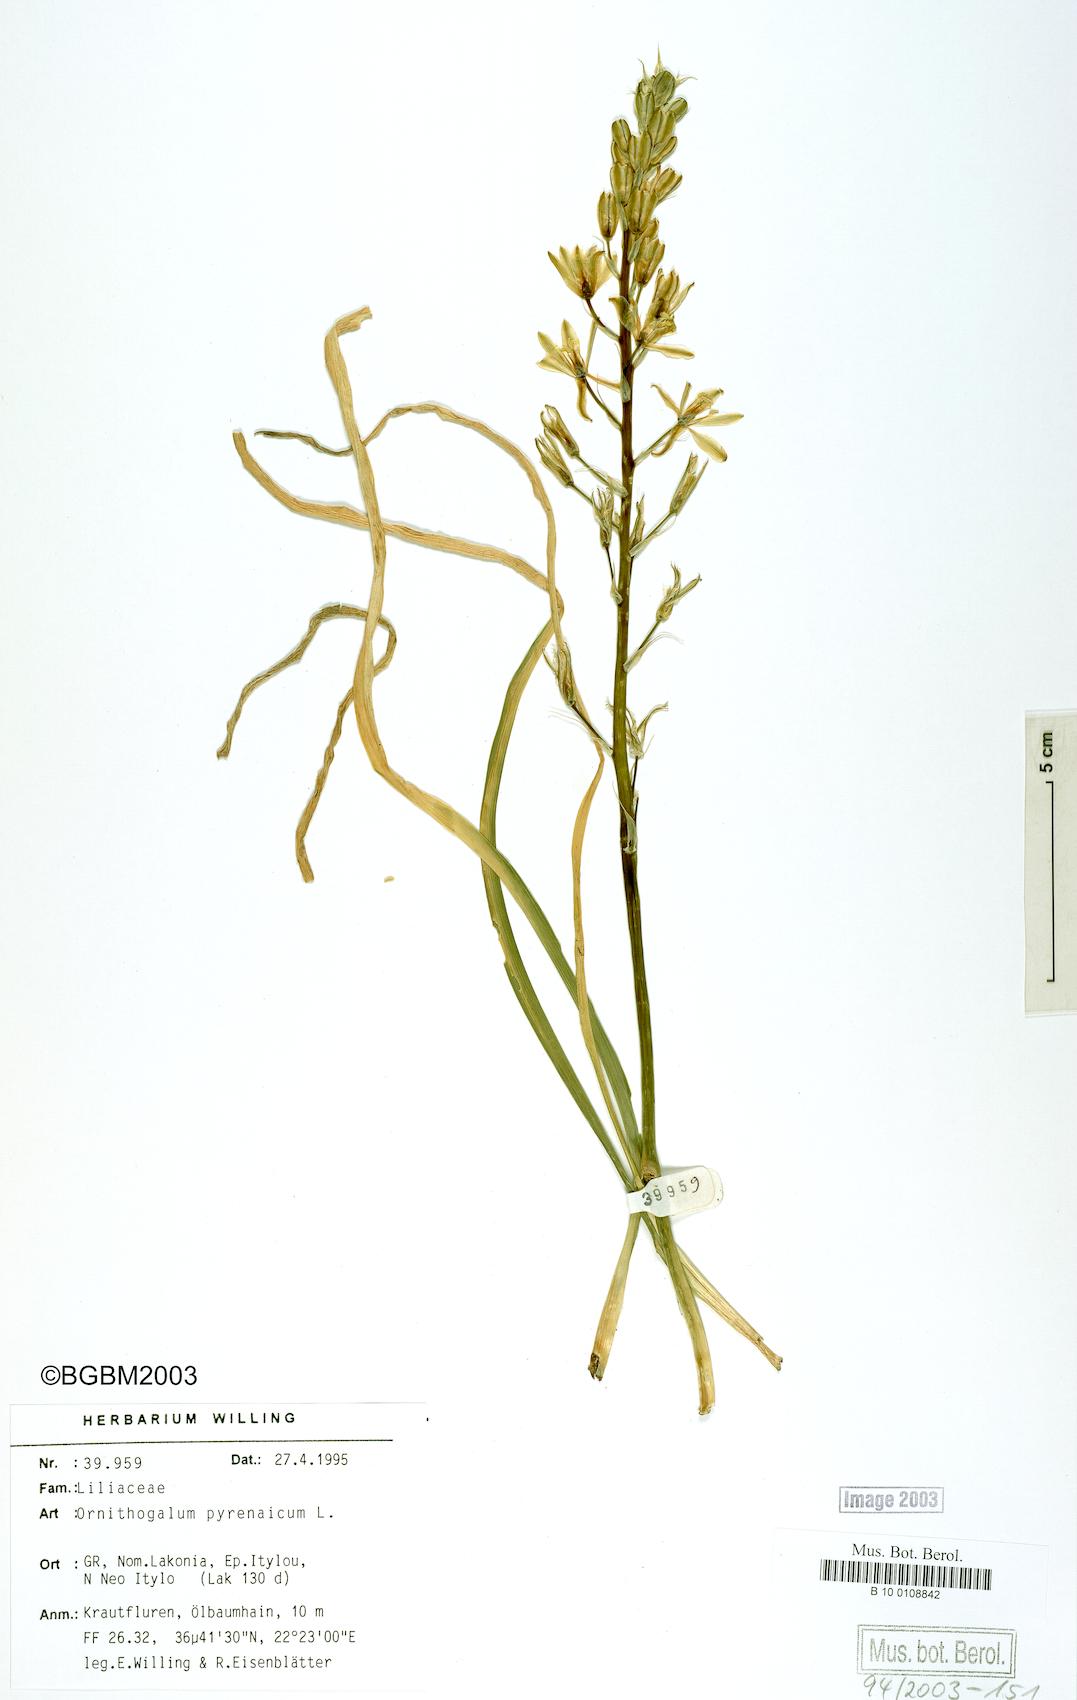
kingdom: Plantae
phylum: Tracheophyta
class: Liliopsida
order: Asparagales
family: Asparagaceae
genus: Ornithogalum
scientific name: Ornithogalum pyrenaicum
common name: Spiked star-of-bethlehem
